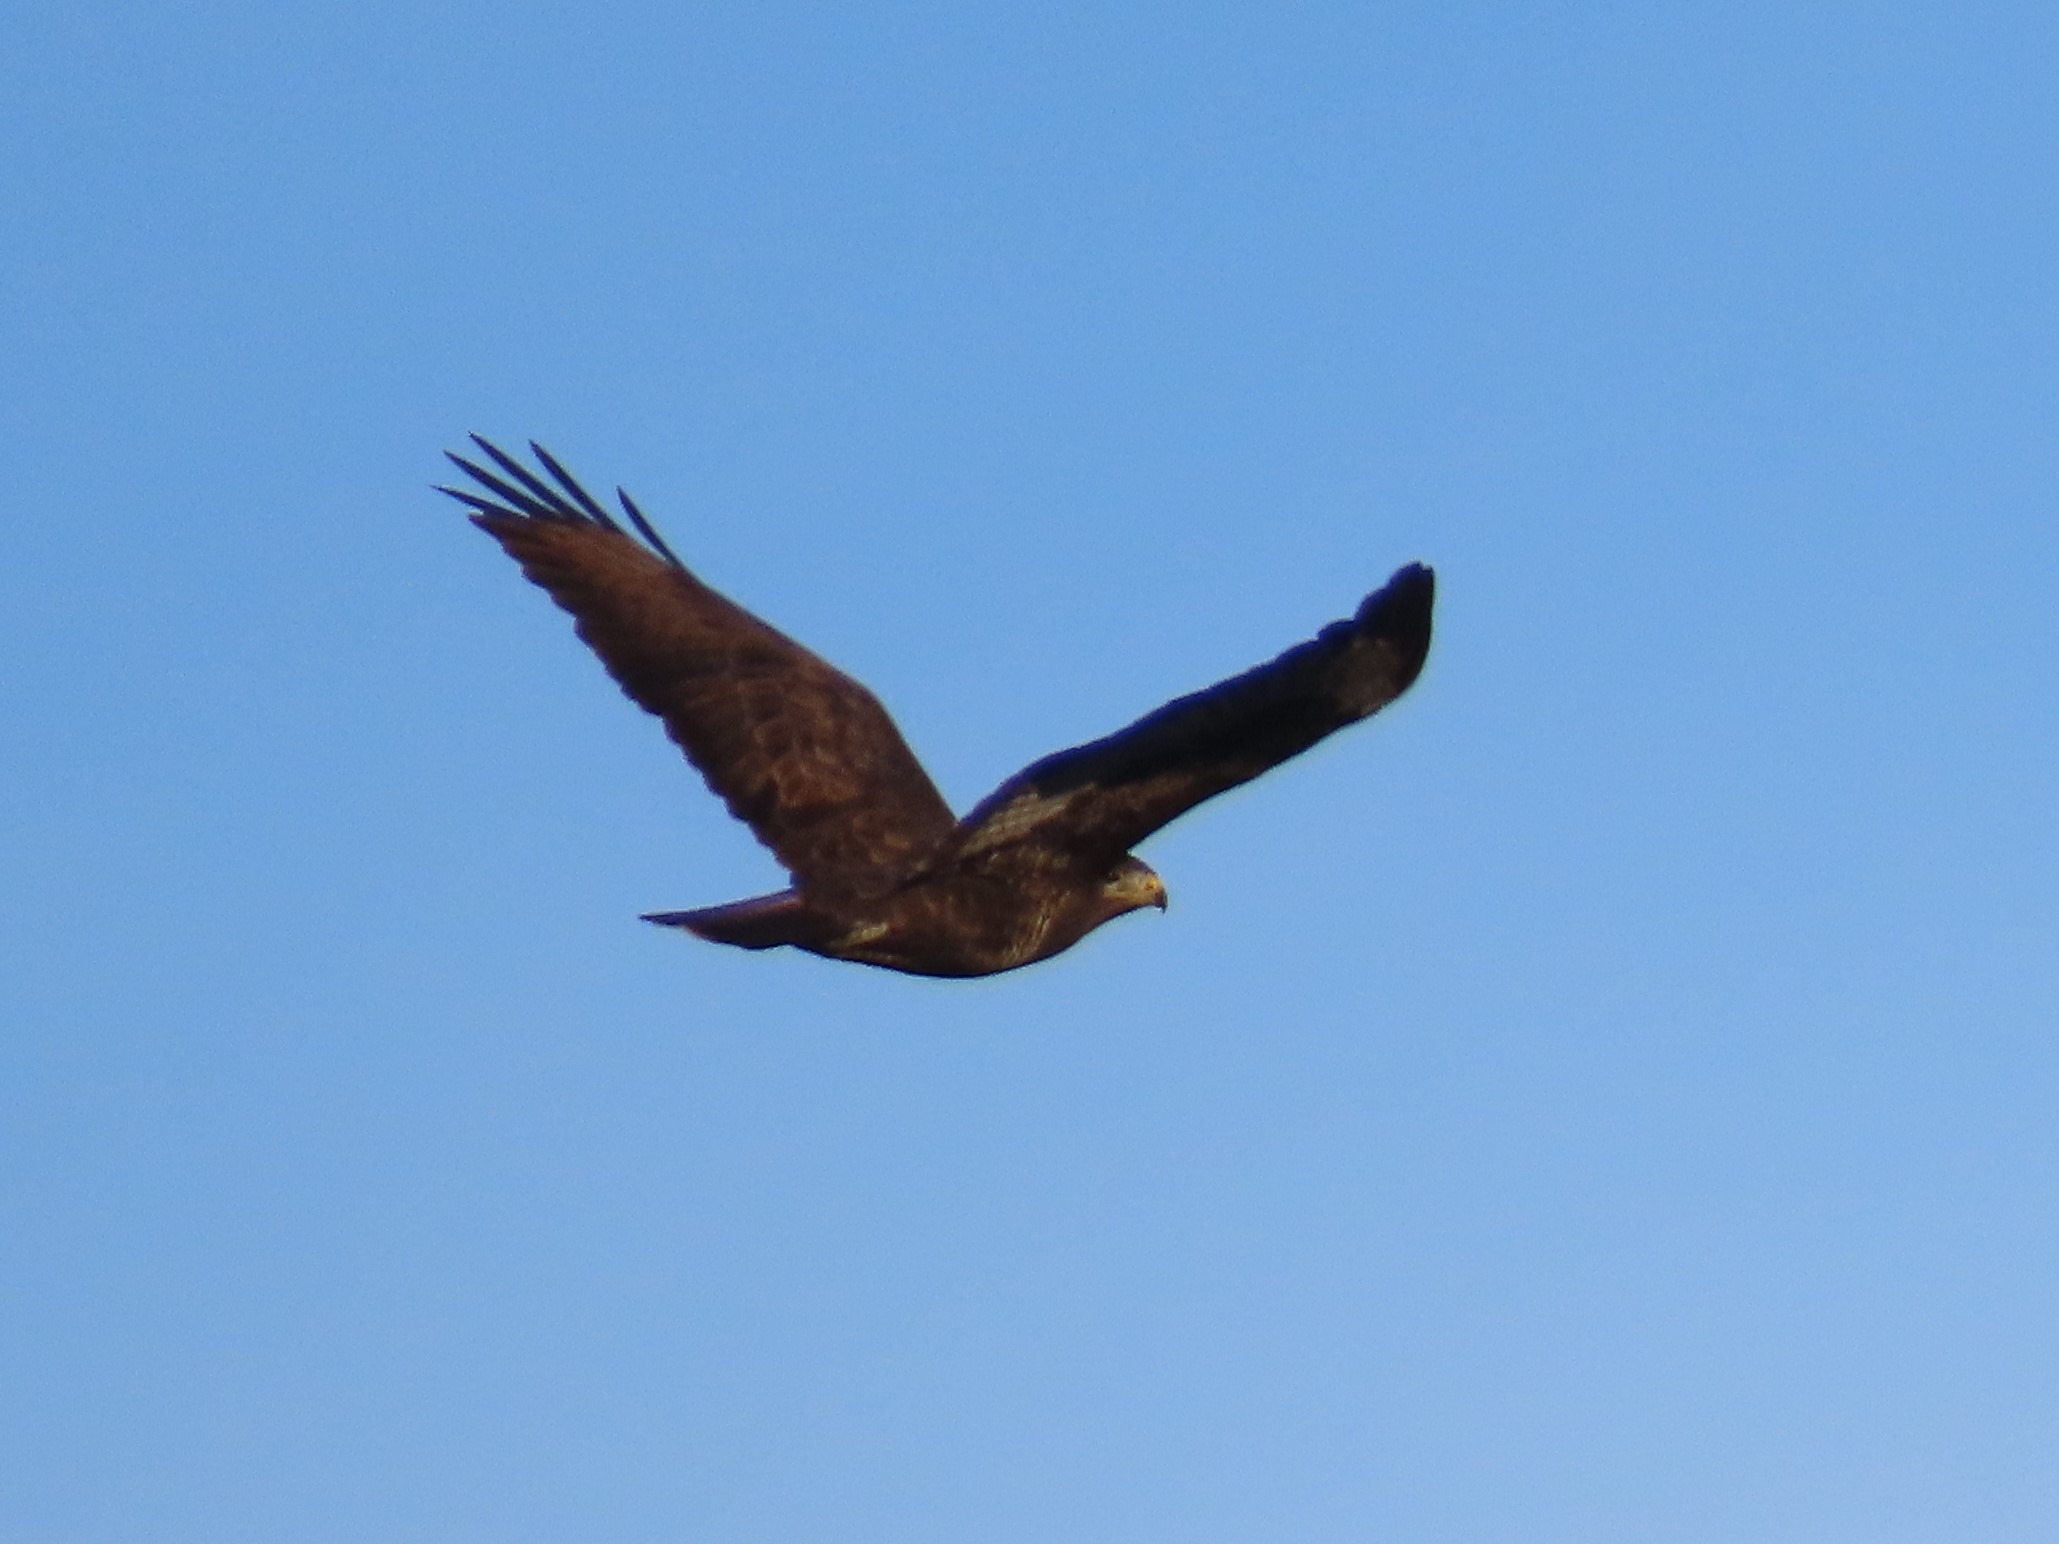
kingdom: Animalia
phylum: Chordata
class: Aves
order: Accipitriformes
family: Accipitridae
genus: Buteo
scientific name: Buteo buteo
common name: Musvåge
